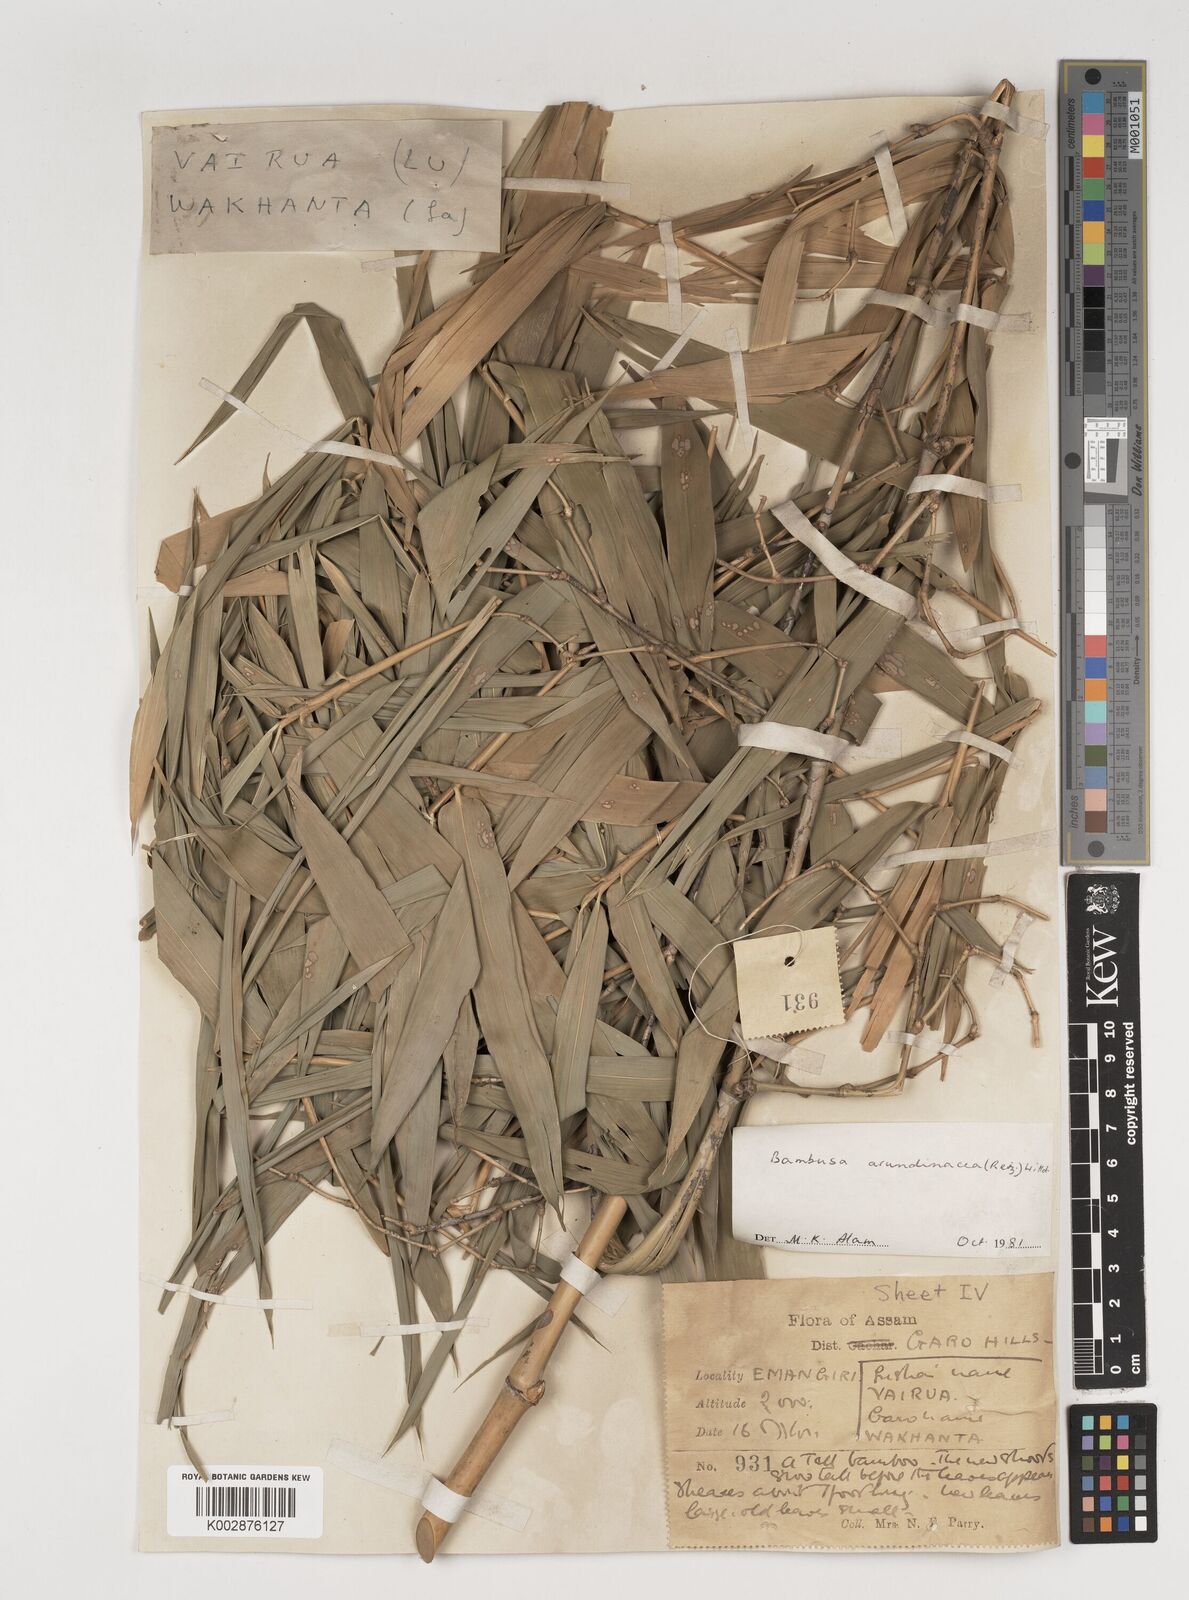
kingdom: Plantae
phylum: Tracheophyta
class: Liliopsida
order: Poales
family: Poaceae
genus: Bambusa
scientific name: Bambusa bambos
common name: Indian thorny bamboo
